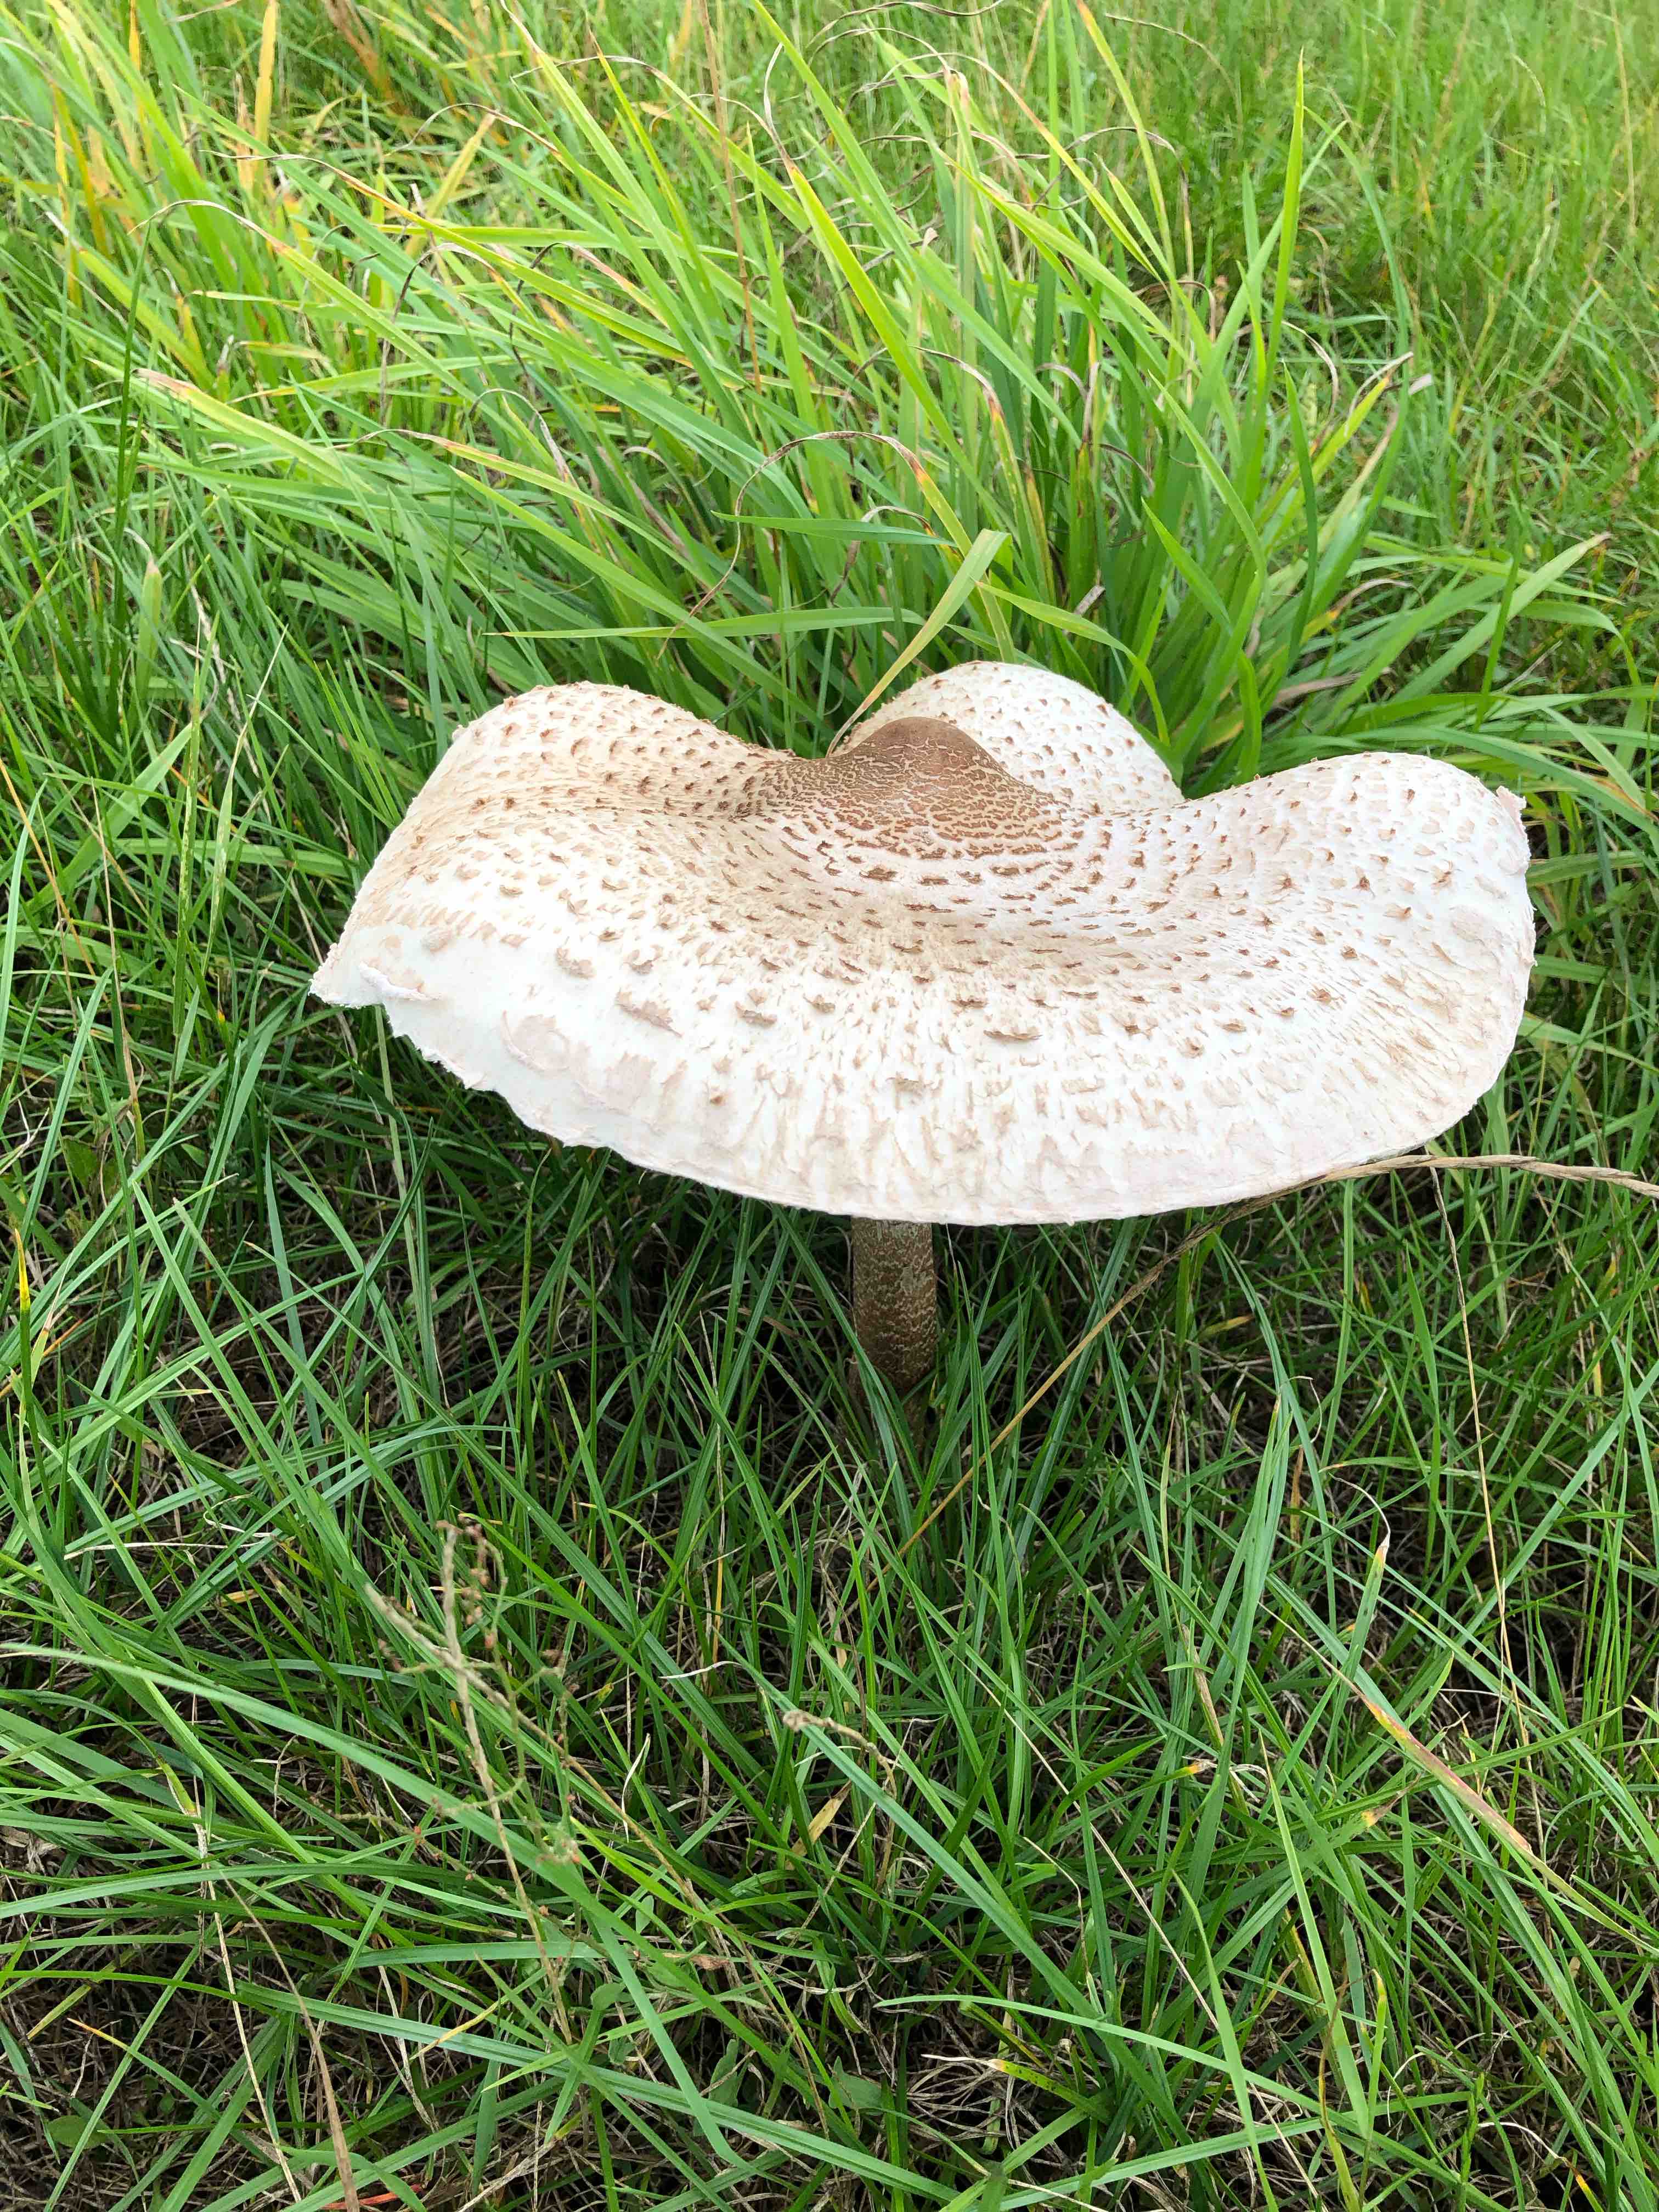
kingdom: Fungi
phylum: Basidiomycota
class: Agaricomycetes
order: Agaricales
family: Agaricaceae
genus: Macrolepiota
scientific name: Macrolepiota procera
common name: stor kæmpeparasolhat
